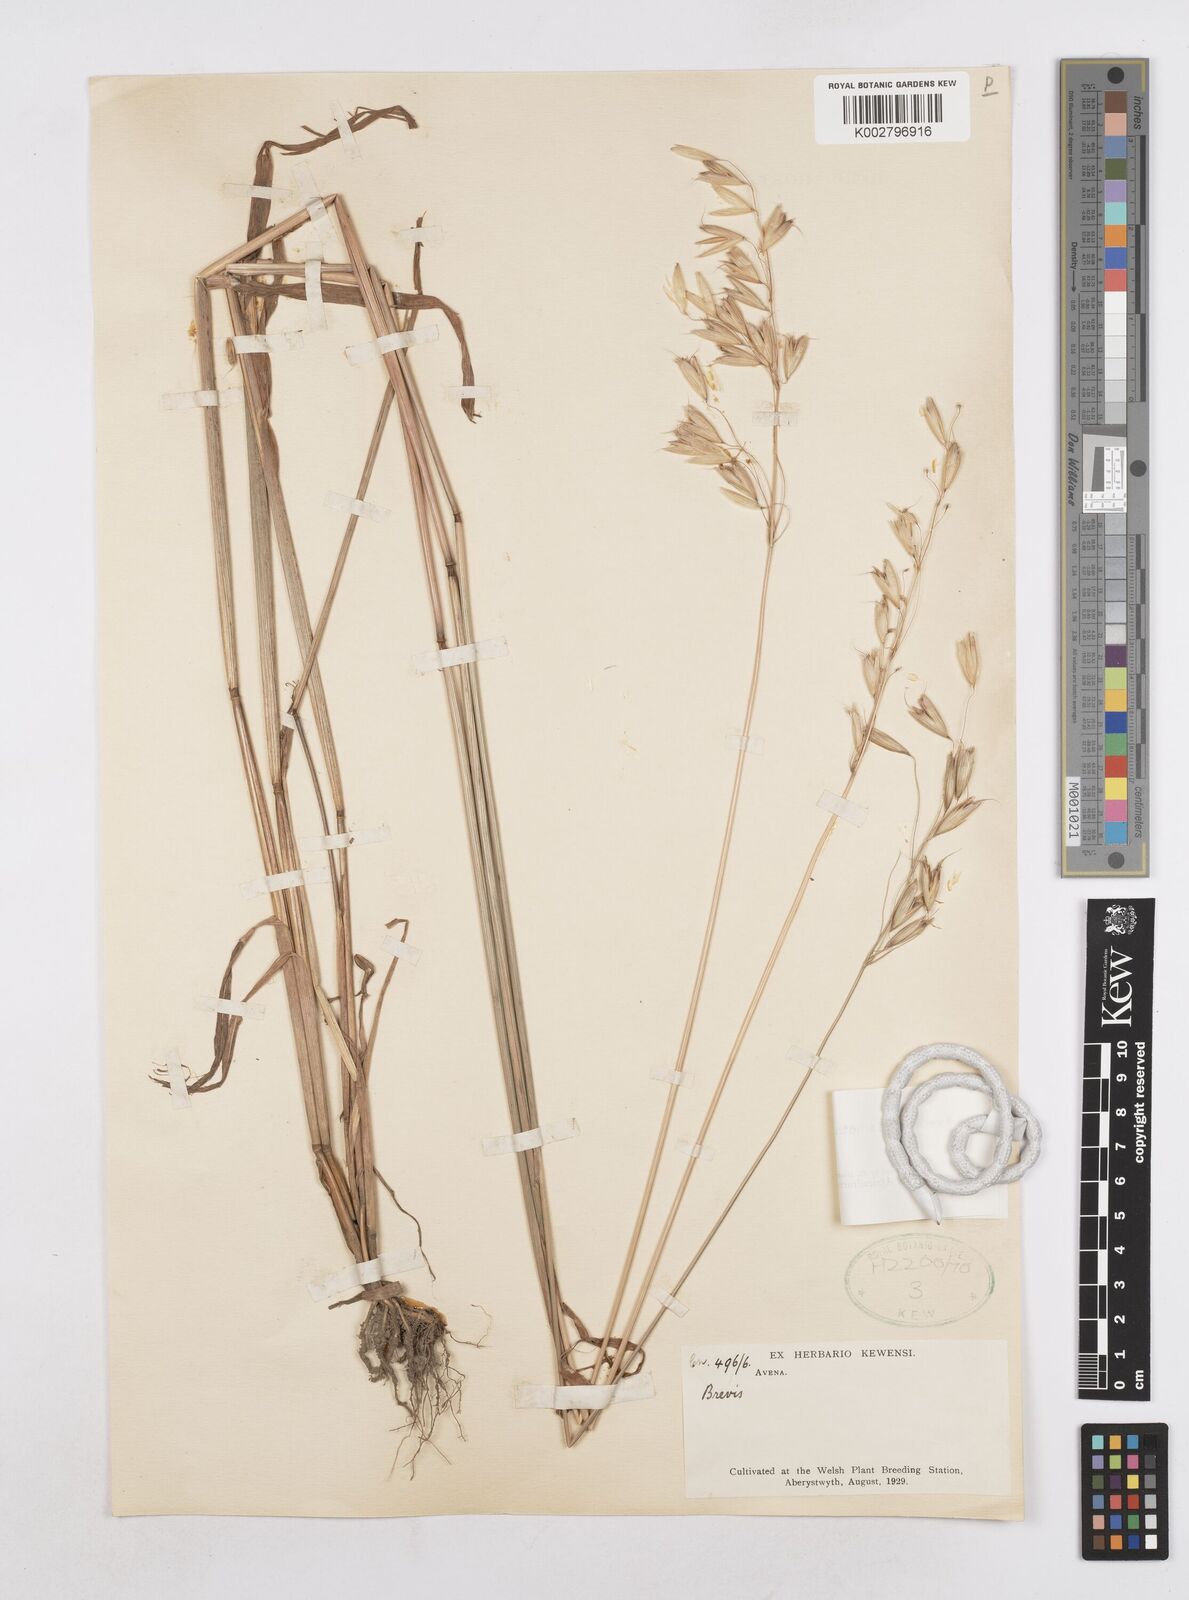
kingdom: Plantae
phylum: Tracheophyta
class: Liliopsida
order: Poales
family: Poaceae
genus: Avena
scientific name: Avena brevis
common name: Short oat
